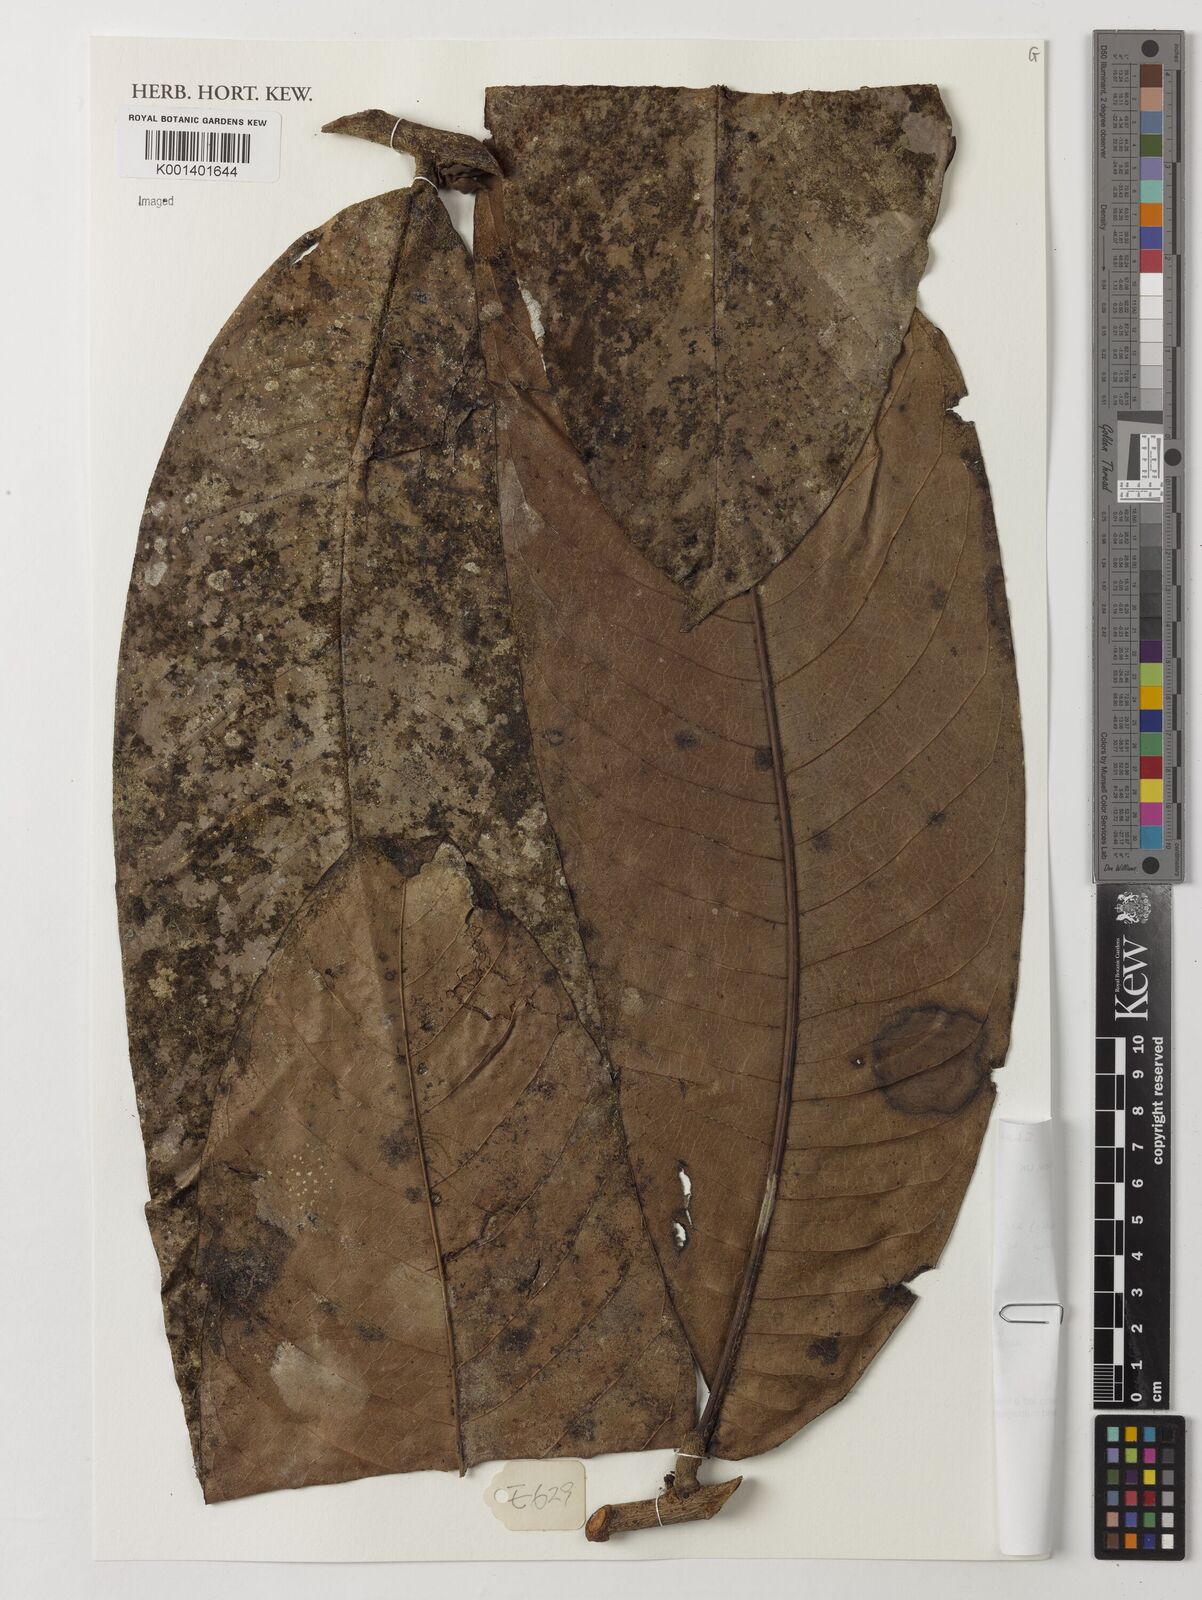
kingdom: Plantae
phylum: Tracheophyta
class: Magnoliopsida
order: Magnoliales
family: Annonaceae
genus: Uvariodendron
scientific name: Uvariodendron connivens
